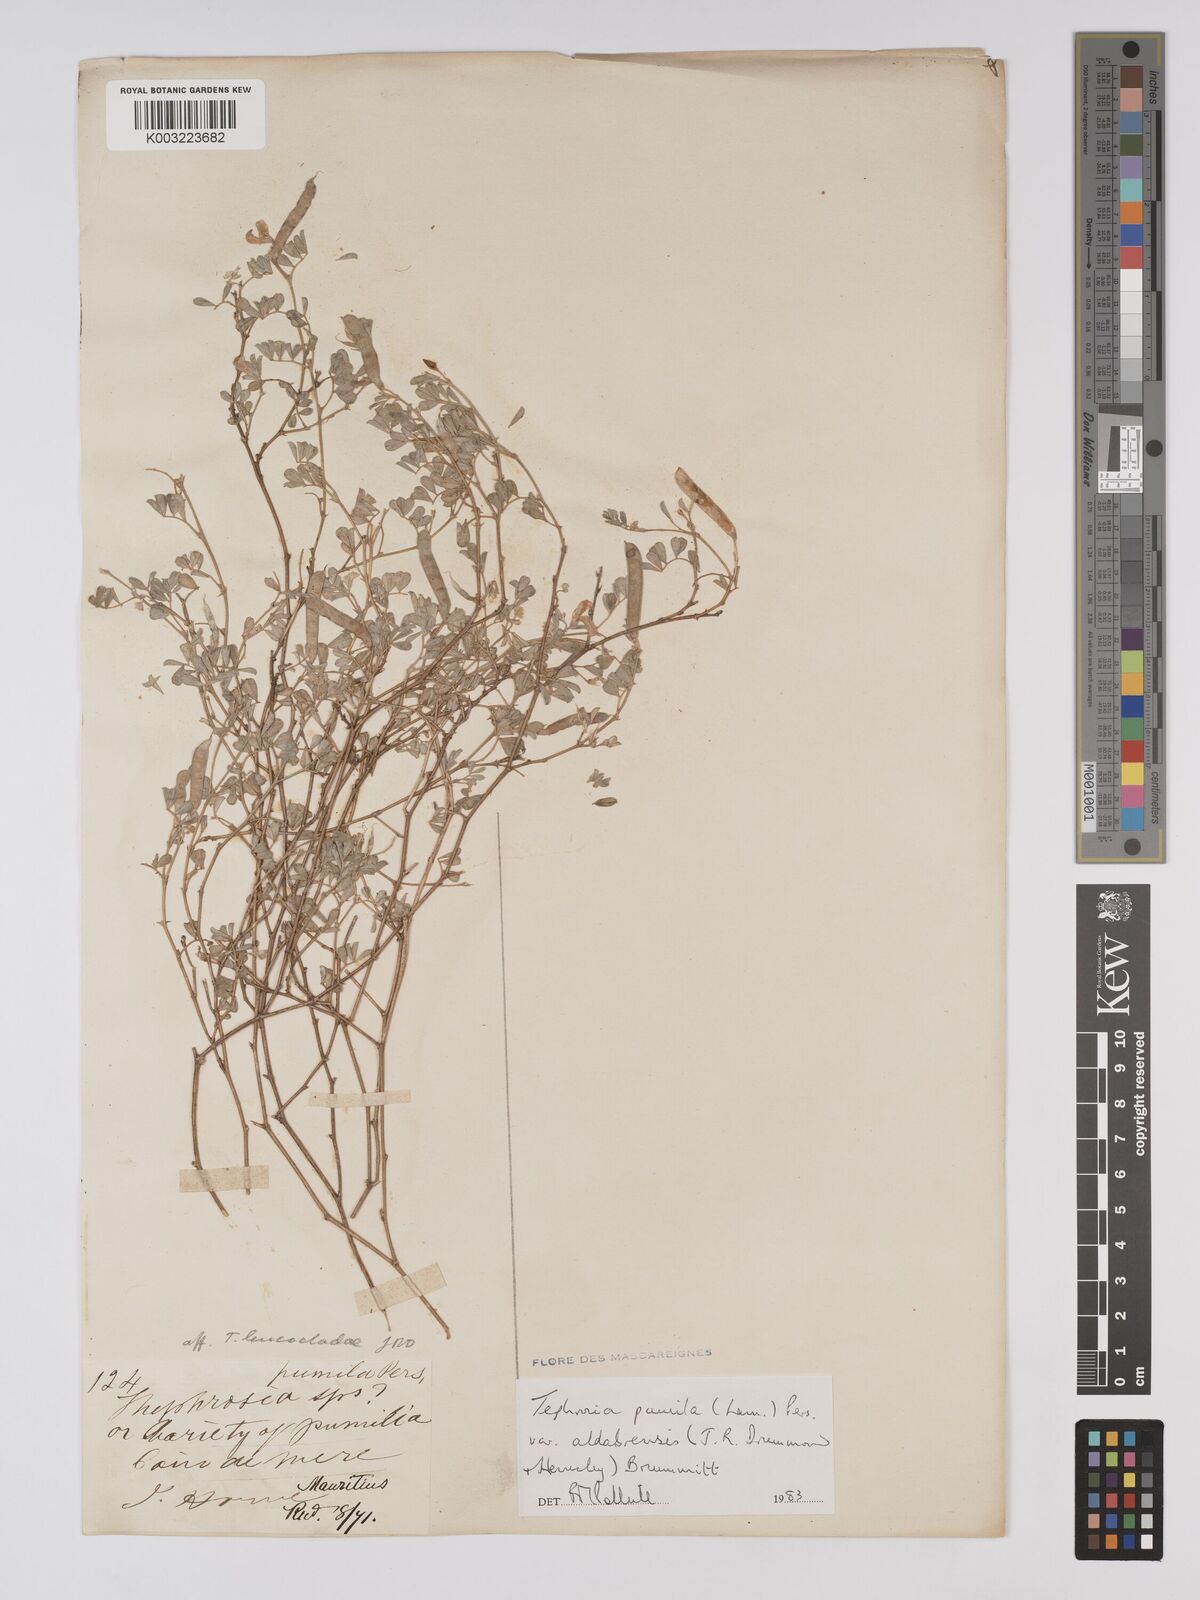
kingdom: Plantae
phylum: Tracheophyta
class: Magnoliopsida
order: Fabales
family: Fabaceae
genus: Tephrosia
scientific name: Tephrosia pumila
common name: Indigo sauvage
